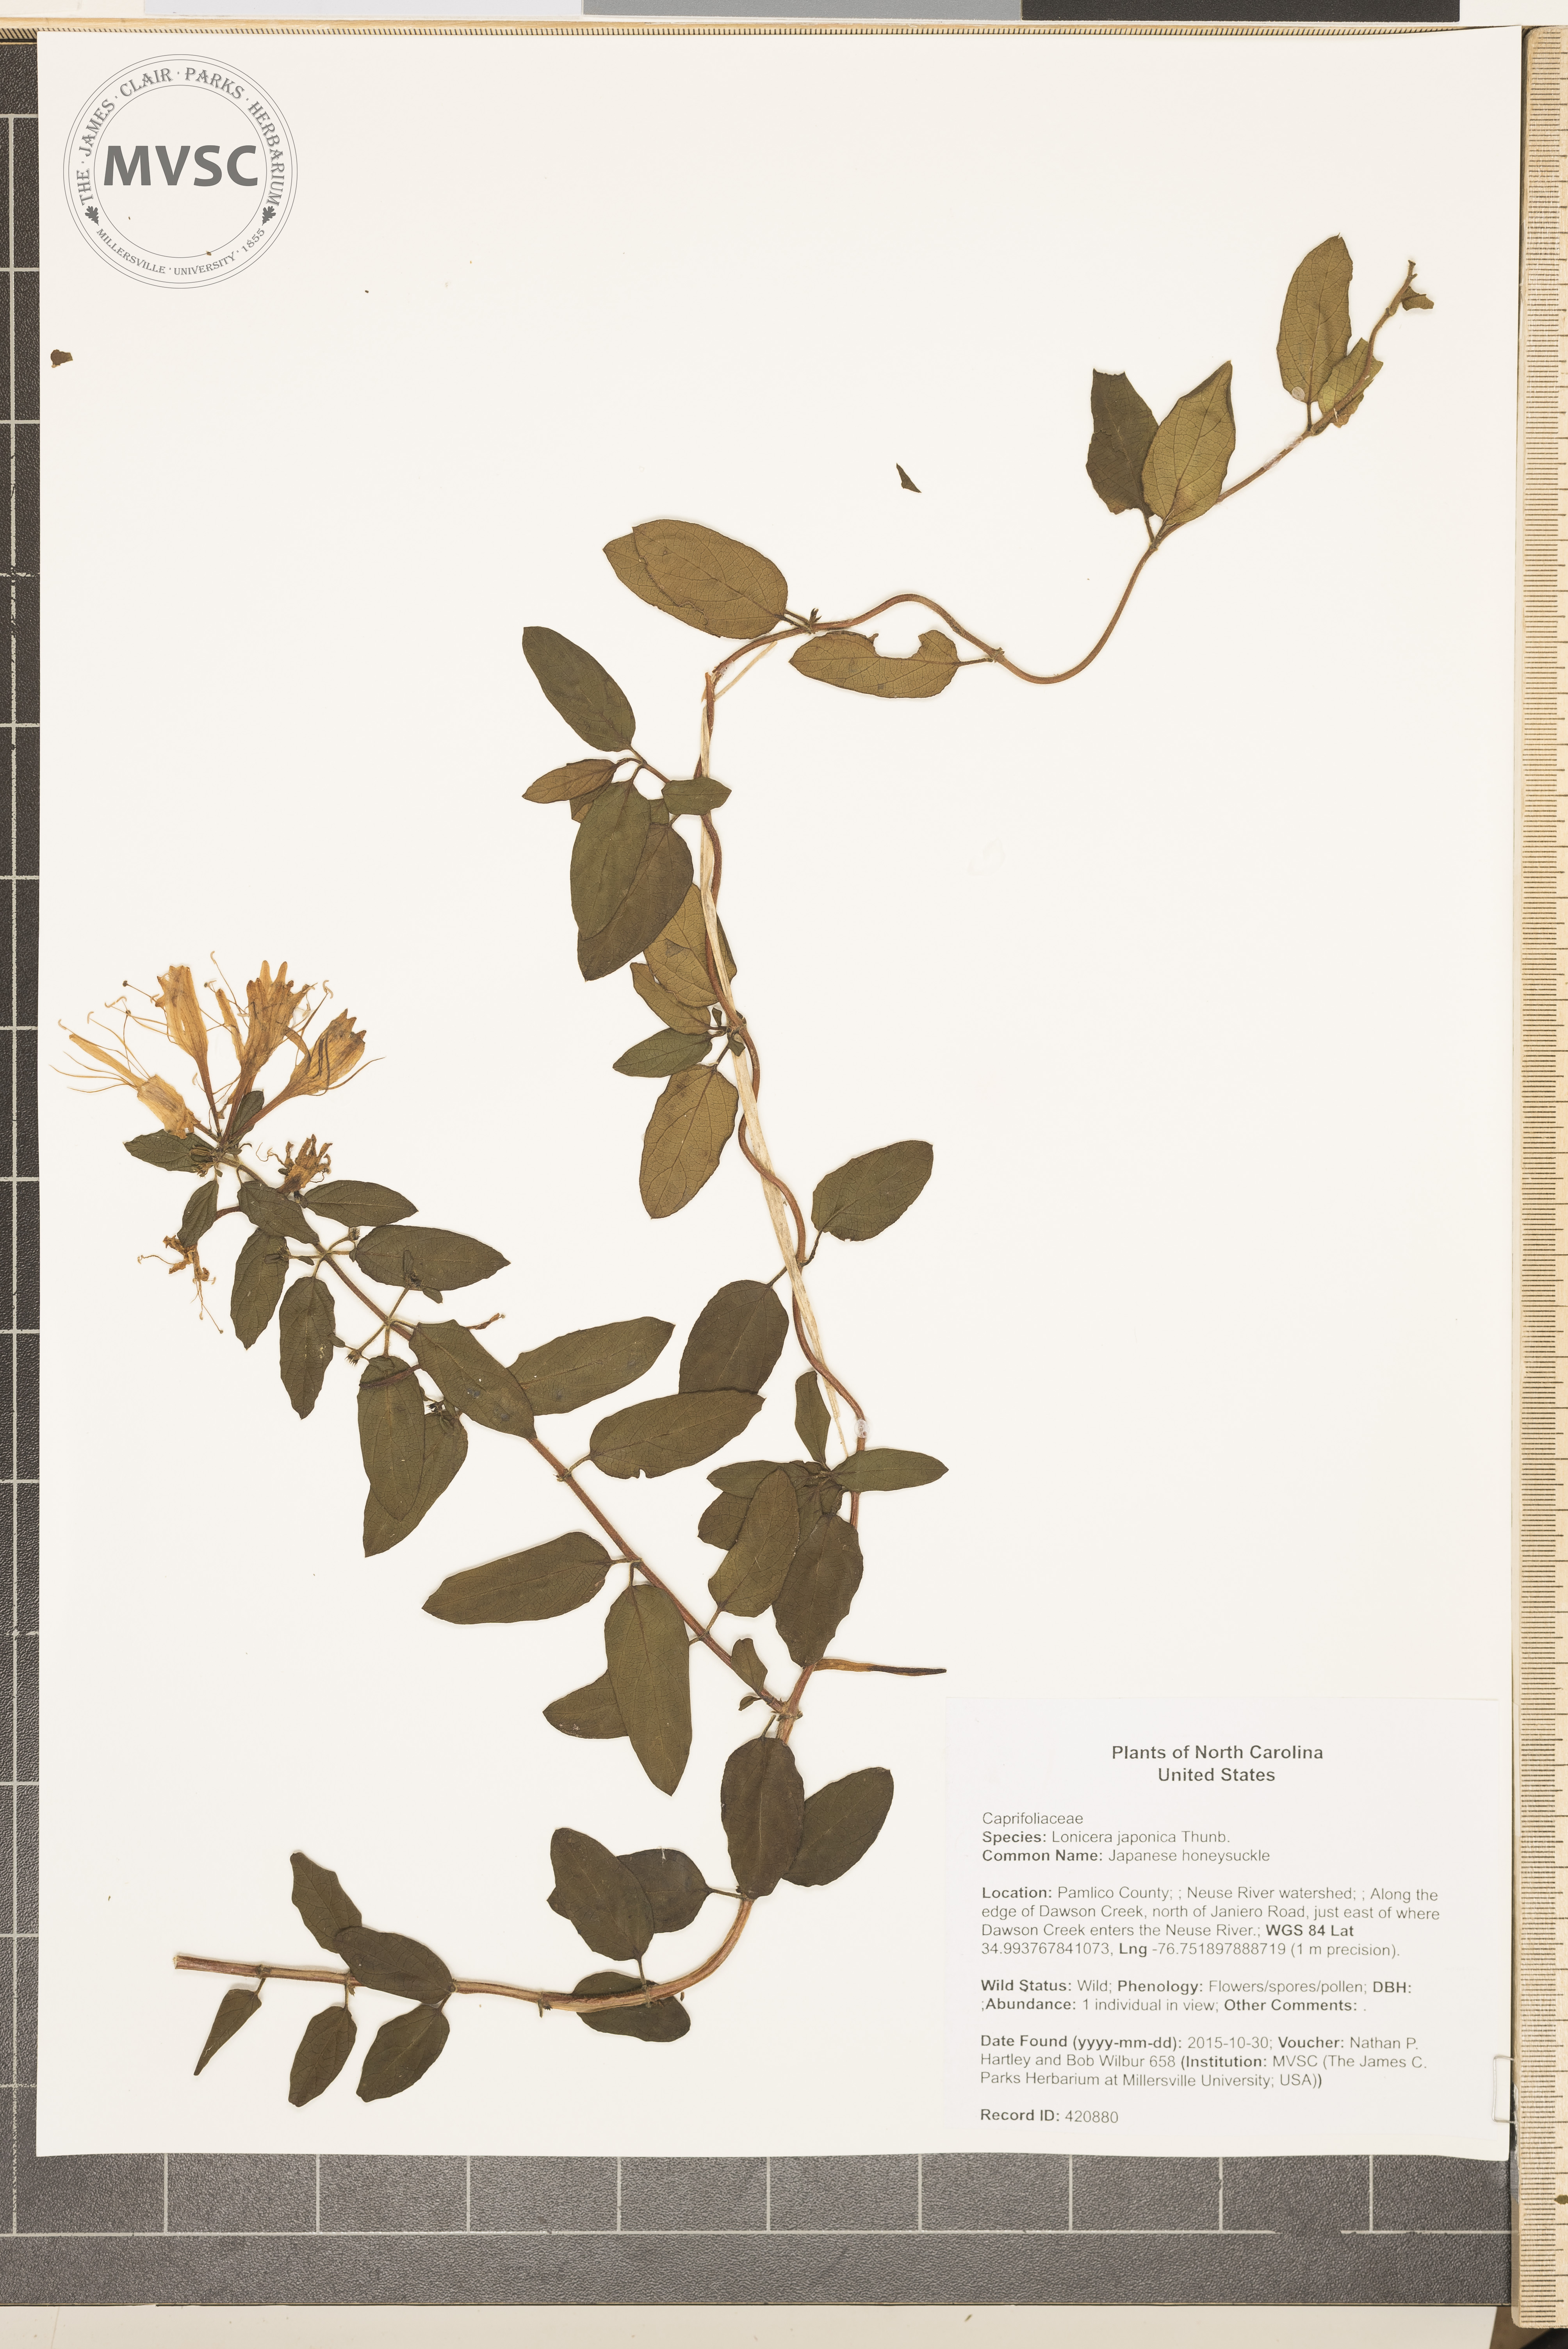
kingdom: Plantae
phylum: Tracheophyta
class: Magnoliopsida
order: Dipsacales
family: Caprifoliaceae
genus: Lonicera
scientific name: Lonicera japonica
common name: Japanese honeysuckle
